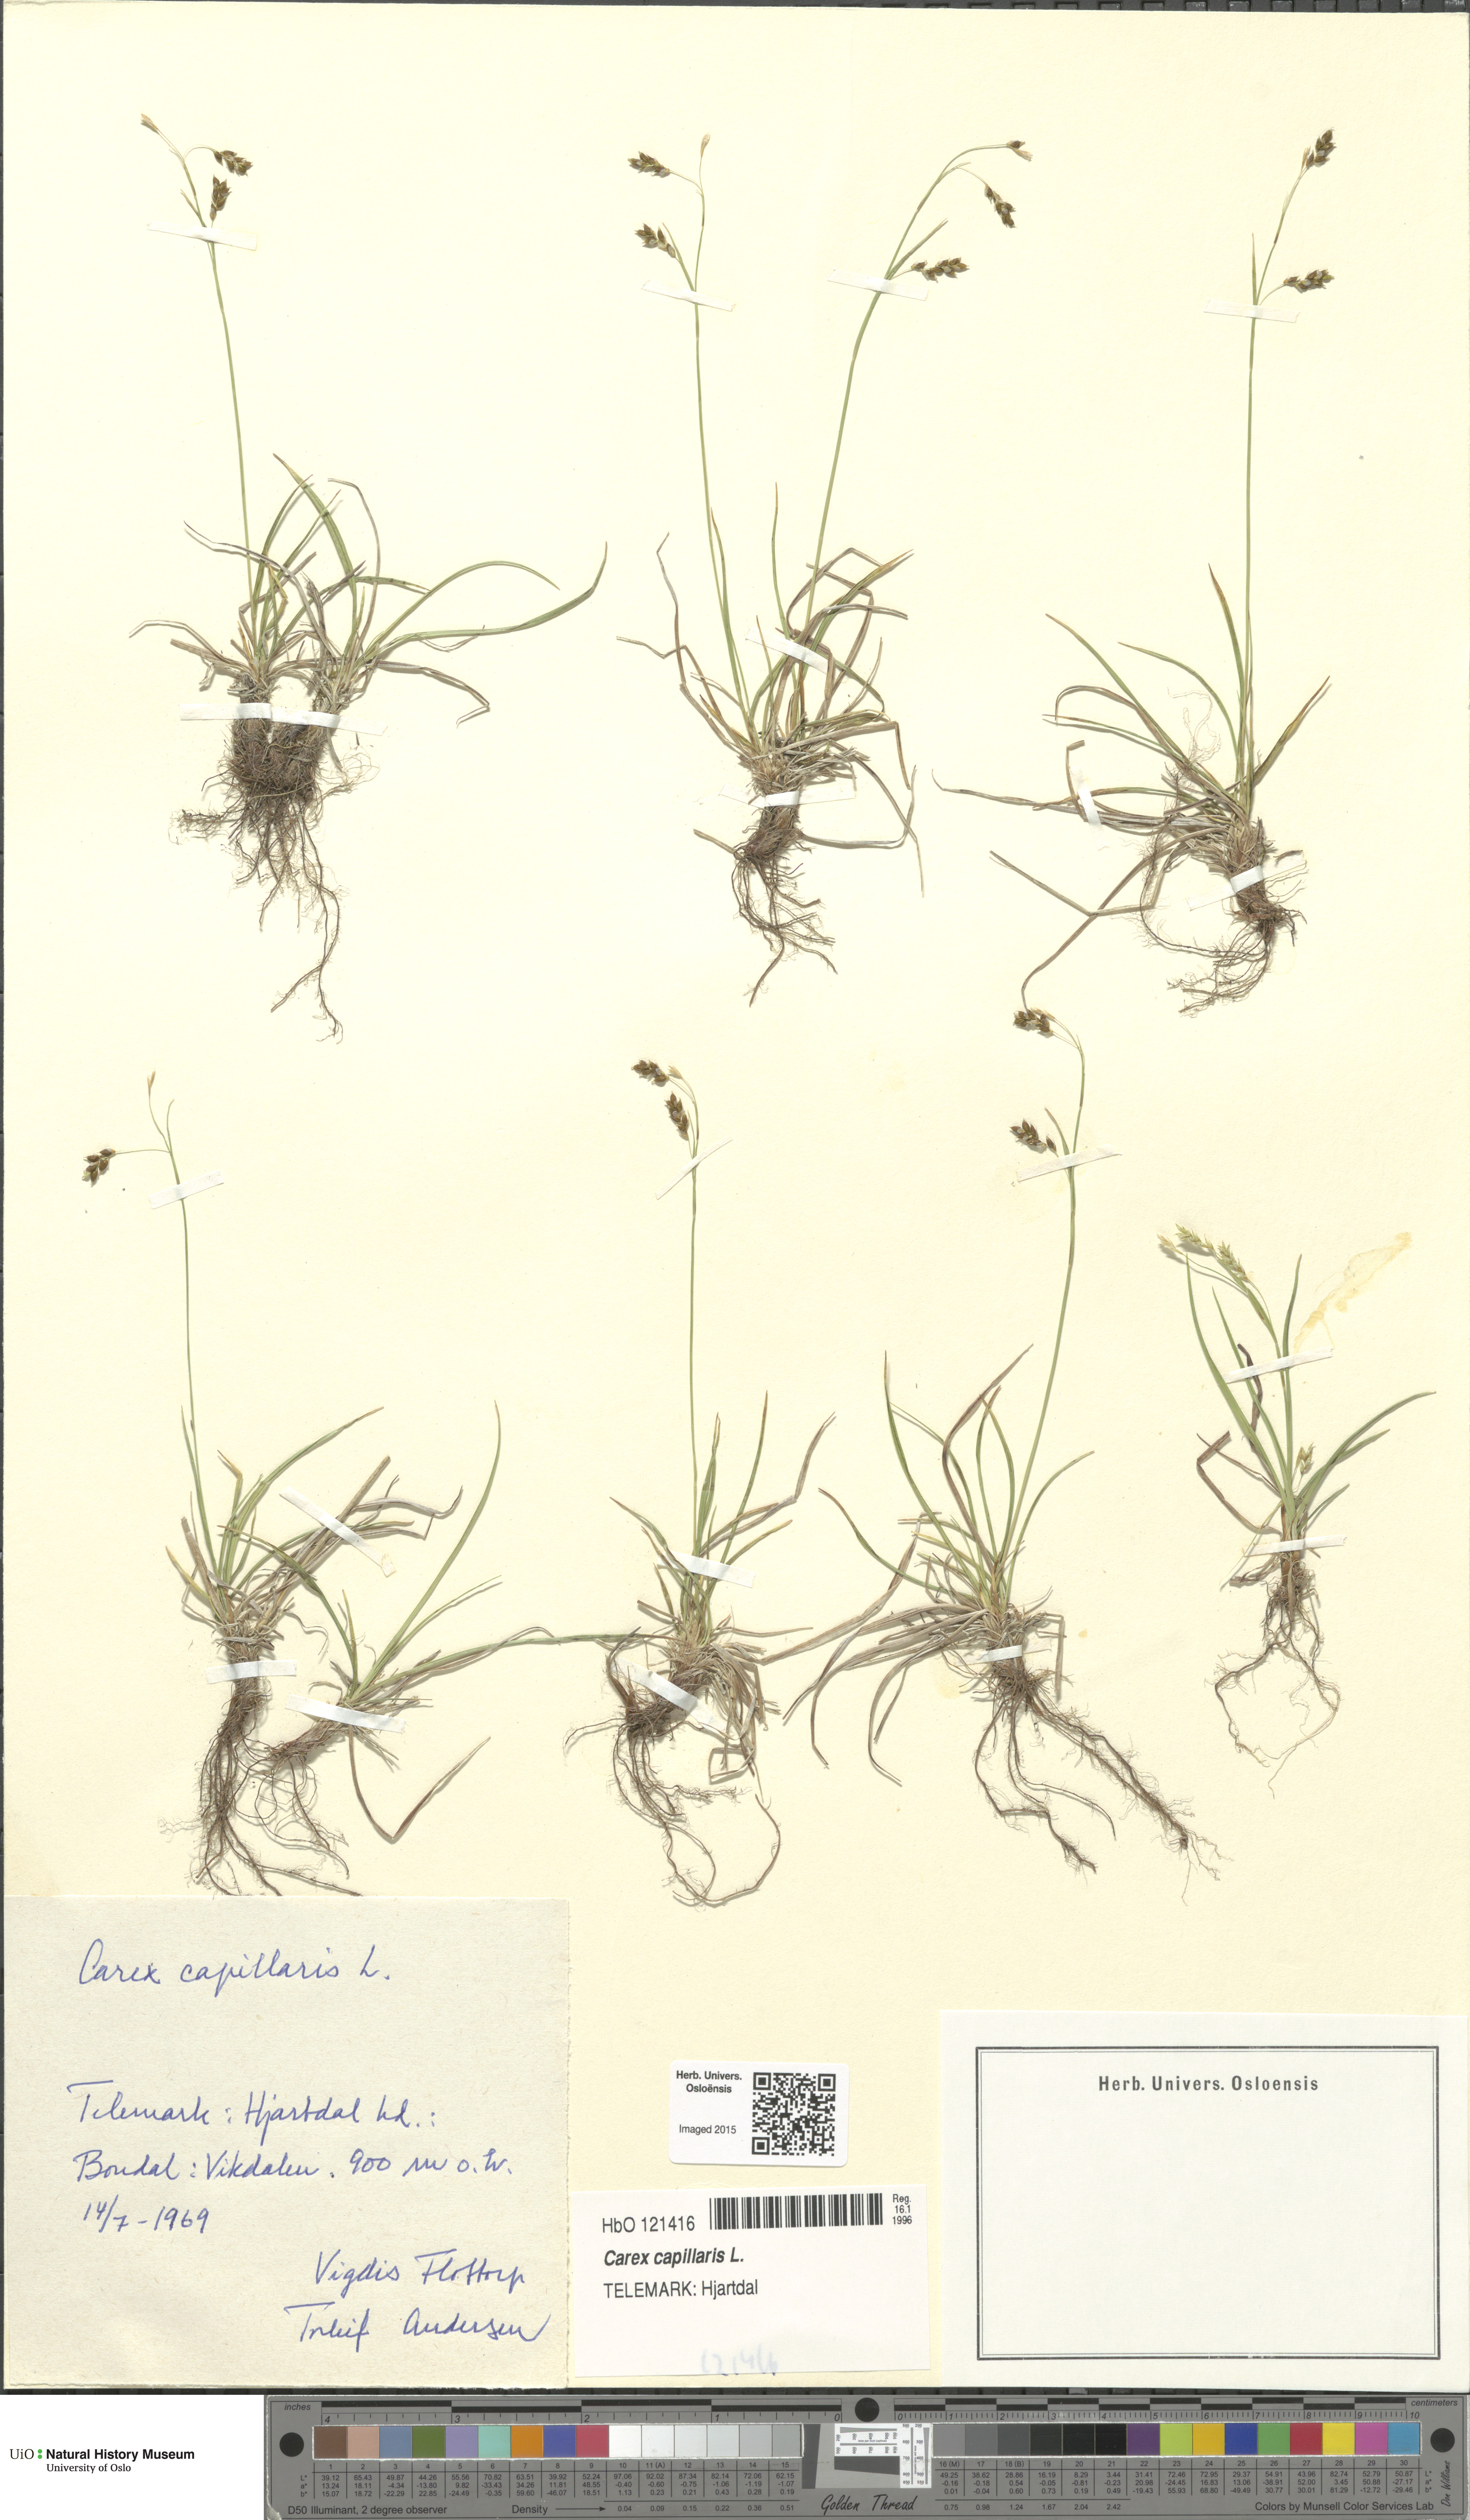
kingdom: Plantae
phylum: Tracheophyta
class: Liliopsida
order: Poales
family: Cyperaceae
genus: Carex
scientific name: Carex capillaris
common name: Hair sedge
